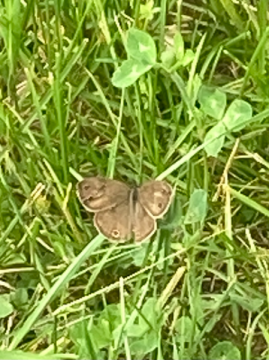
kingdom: Animalia
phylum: Arthropoda
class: Insecta
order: Lepidoptera
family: Nymphalidae
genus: Euptychia
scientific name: Euptychia cymela
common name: Little Wood Satyr
